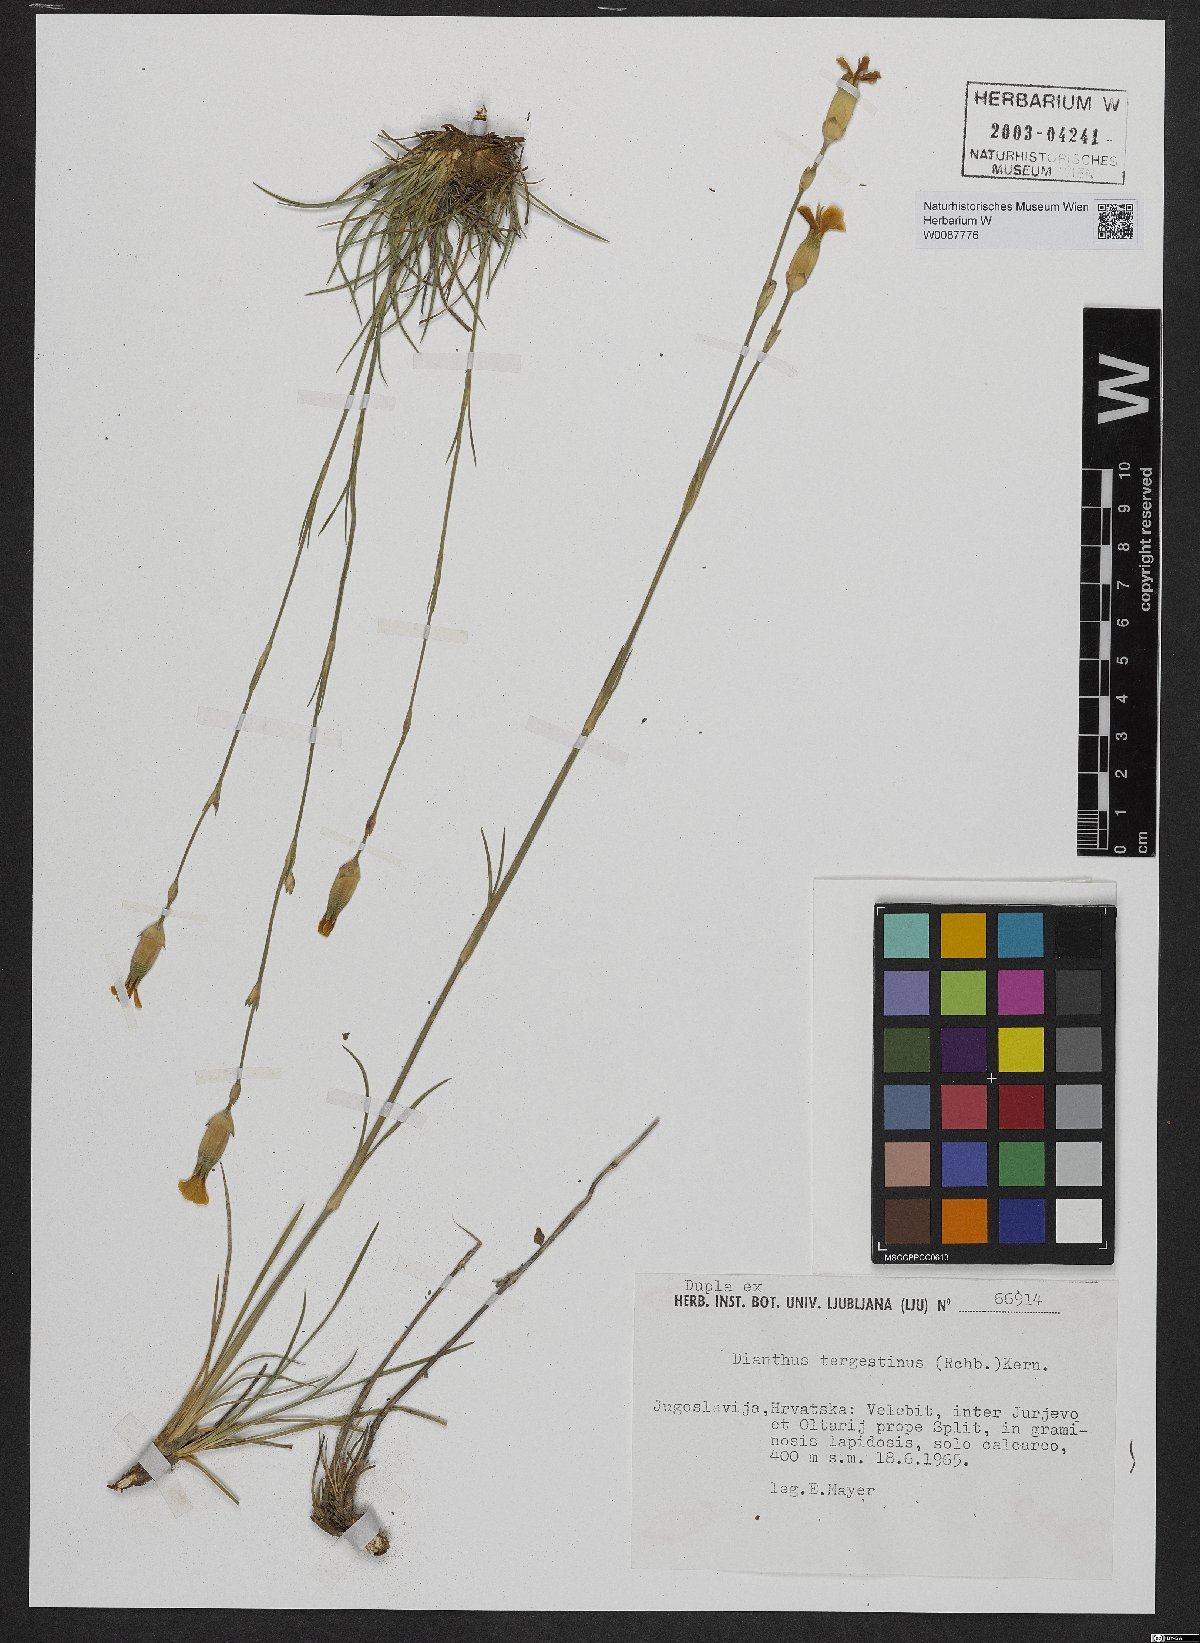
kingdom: Plantae
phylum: Tracheophyta
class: Magnoliopsida
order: Caryophyllales
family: Caryophyllaceae
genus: Dianthus
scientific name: Dianthus sylvestris
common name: Wood pink
